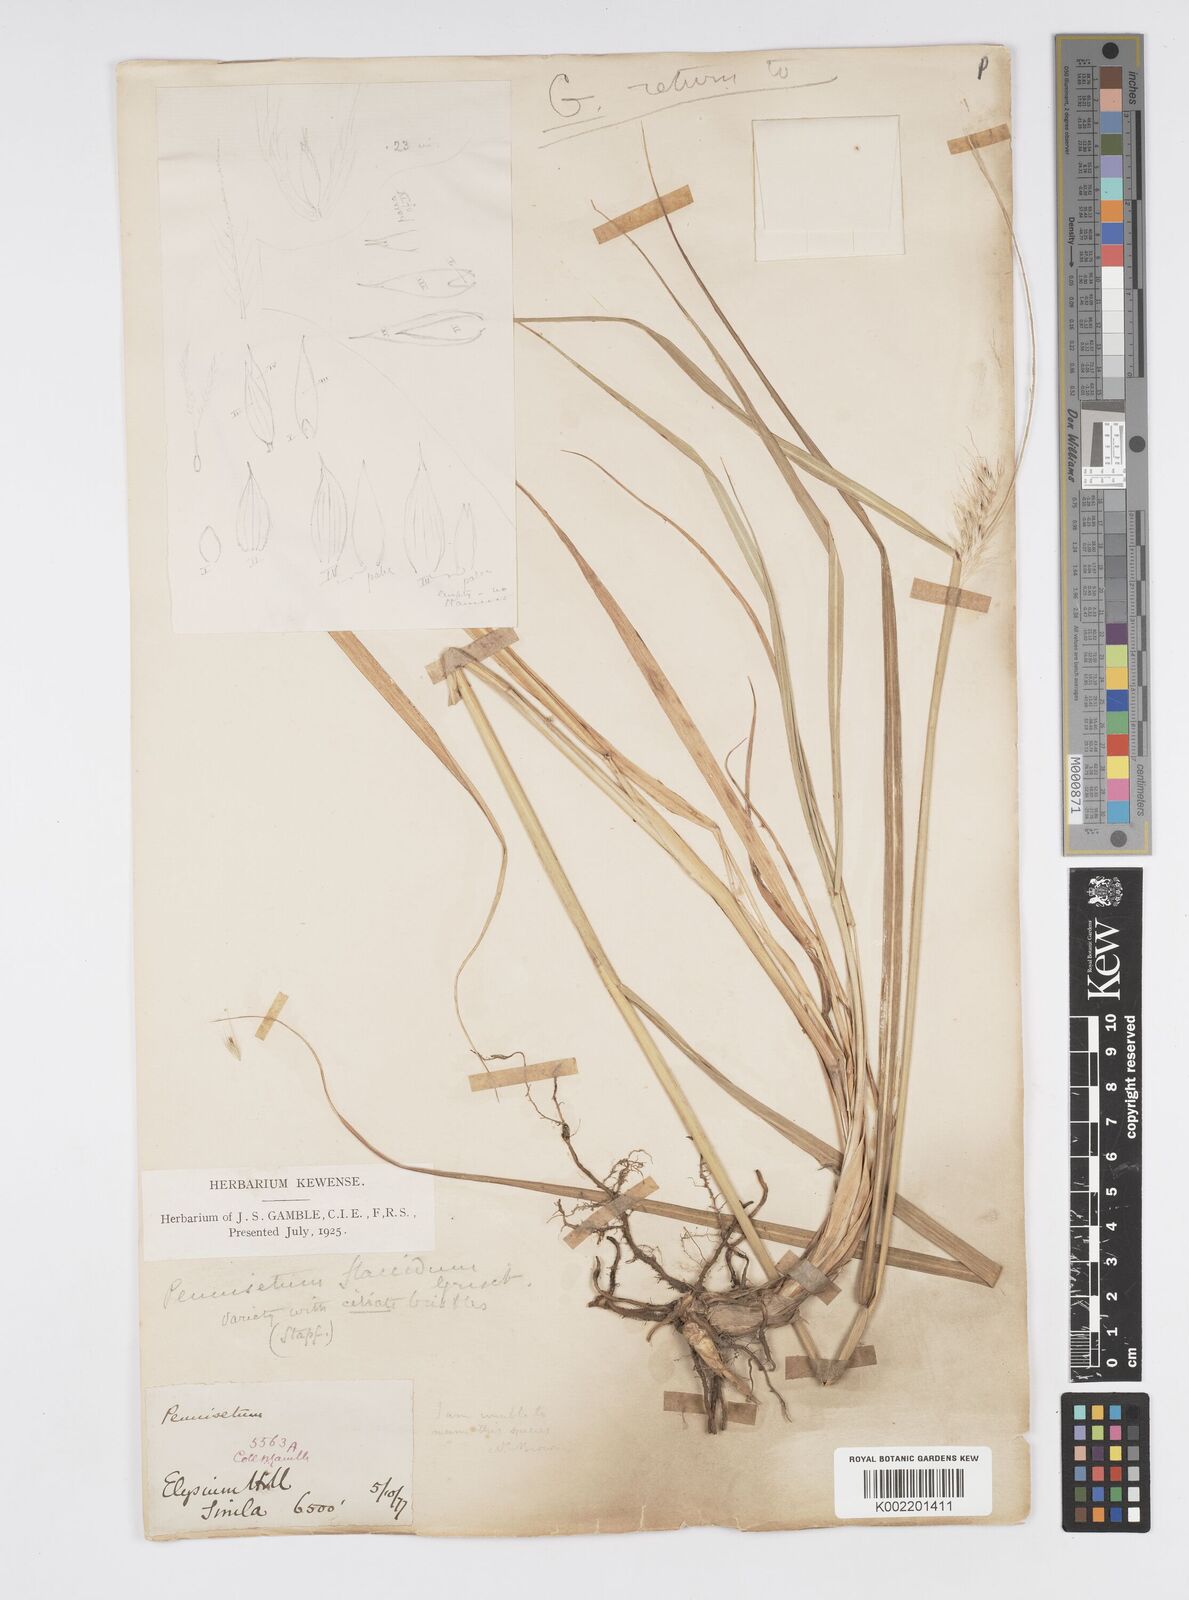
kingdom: Plantae
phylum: Tracheophyta
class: Liliopsida
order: Poales
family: Poaceae
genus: Cenchrus
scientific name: Cenchrus flaccidus
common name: Flaccid grass
